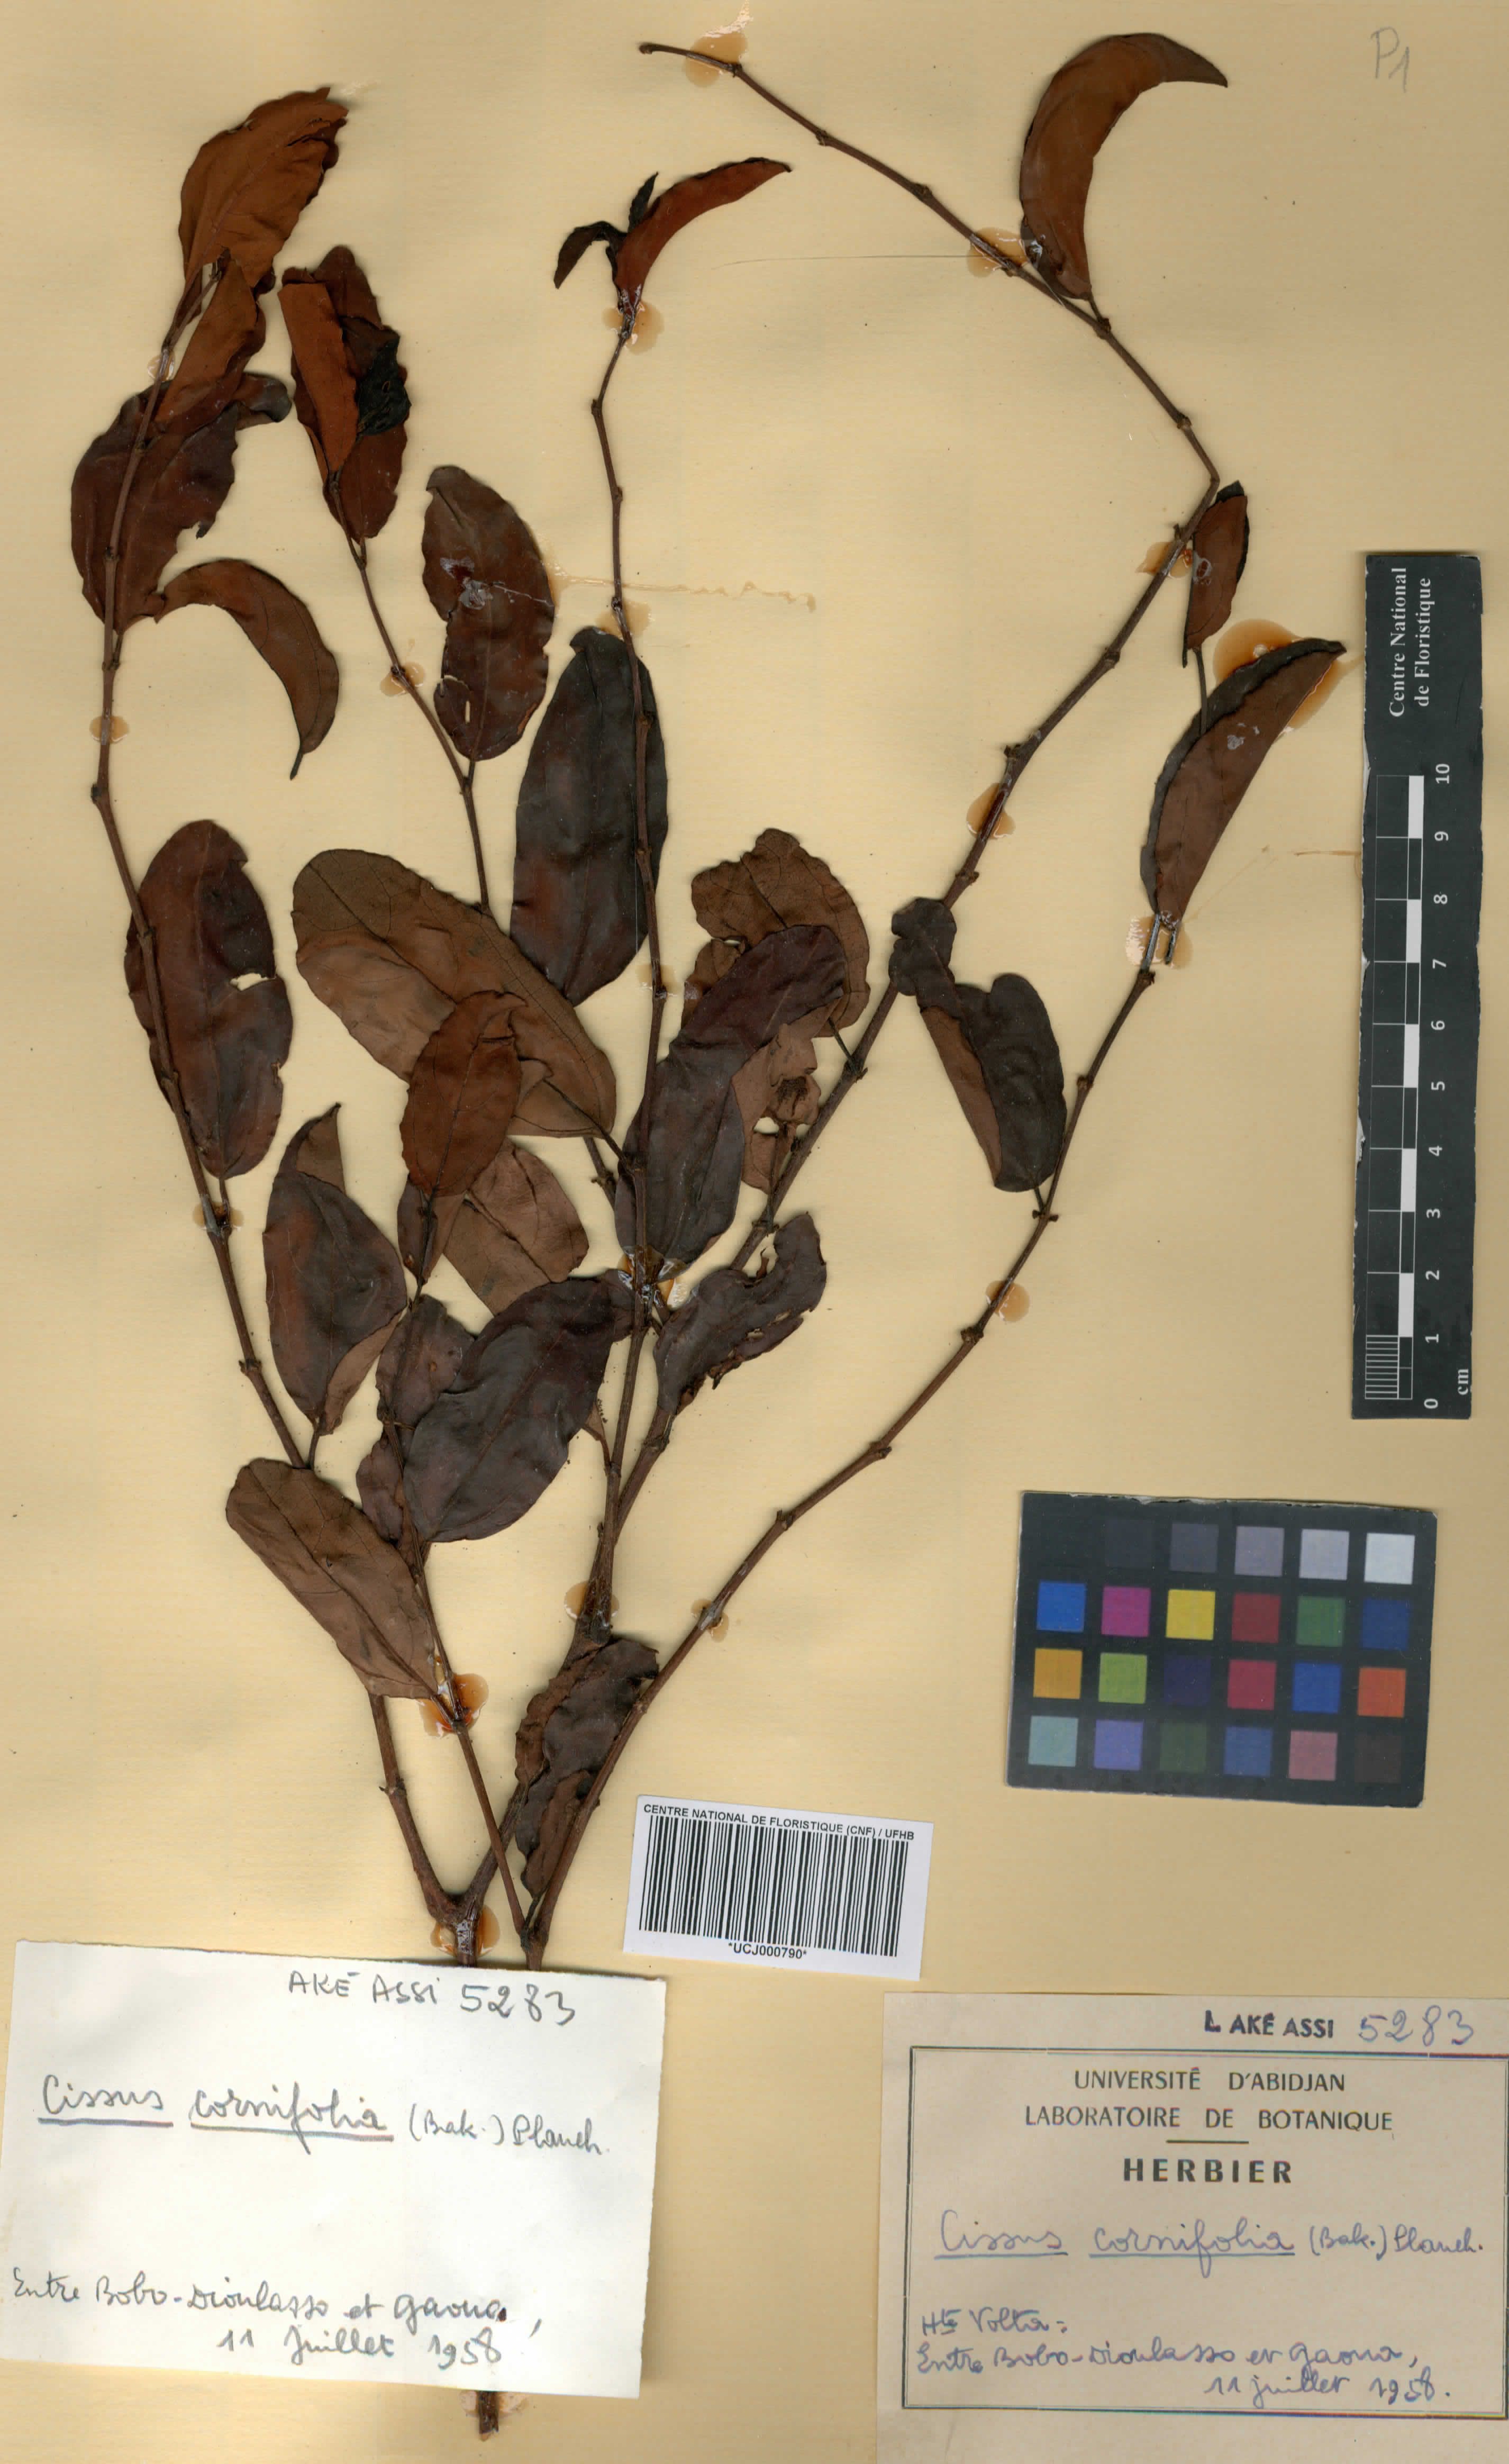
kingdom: Plantae
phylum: Tracheophyta
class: Magnoliopsida
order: Vitales
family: Vitaceae
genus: Cissus
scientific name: Cissus cornifolia
